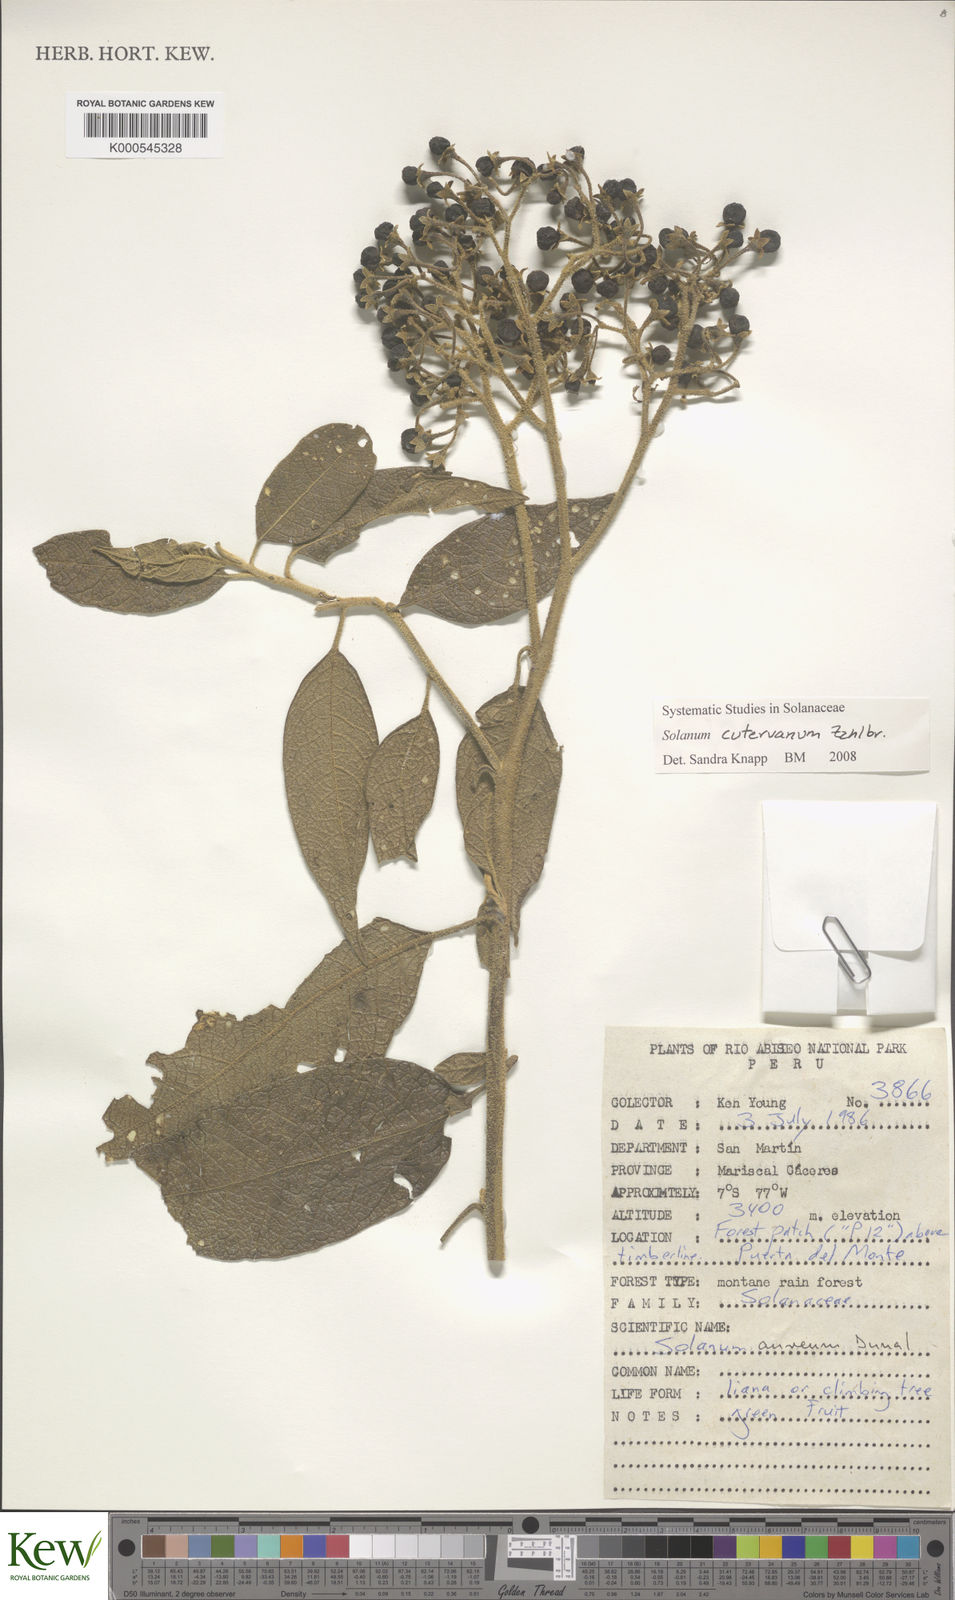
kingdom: Plantae
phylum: Tracheophyta
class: Magnoliopsida
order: Solanales
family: Solanaceae
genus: Solanum
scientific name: Solanum cutervanum
